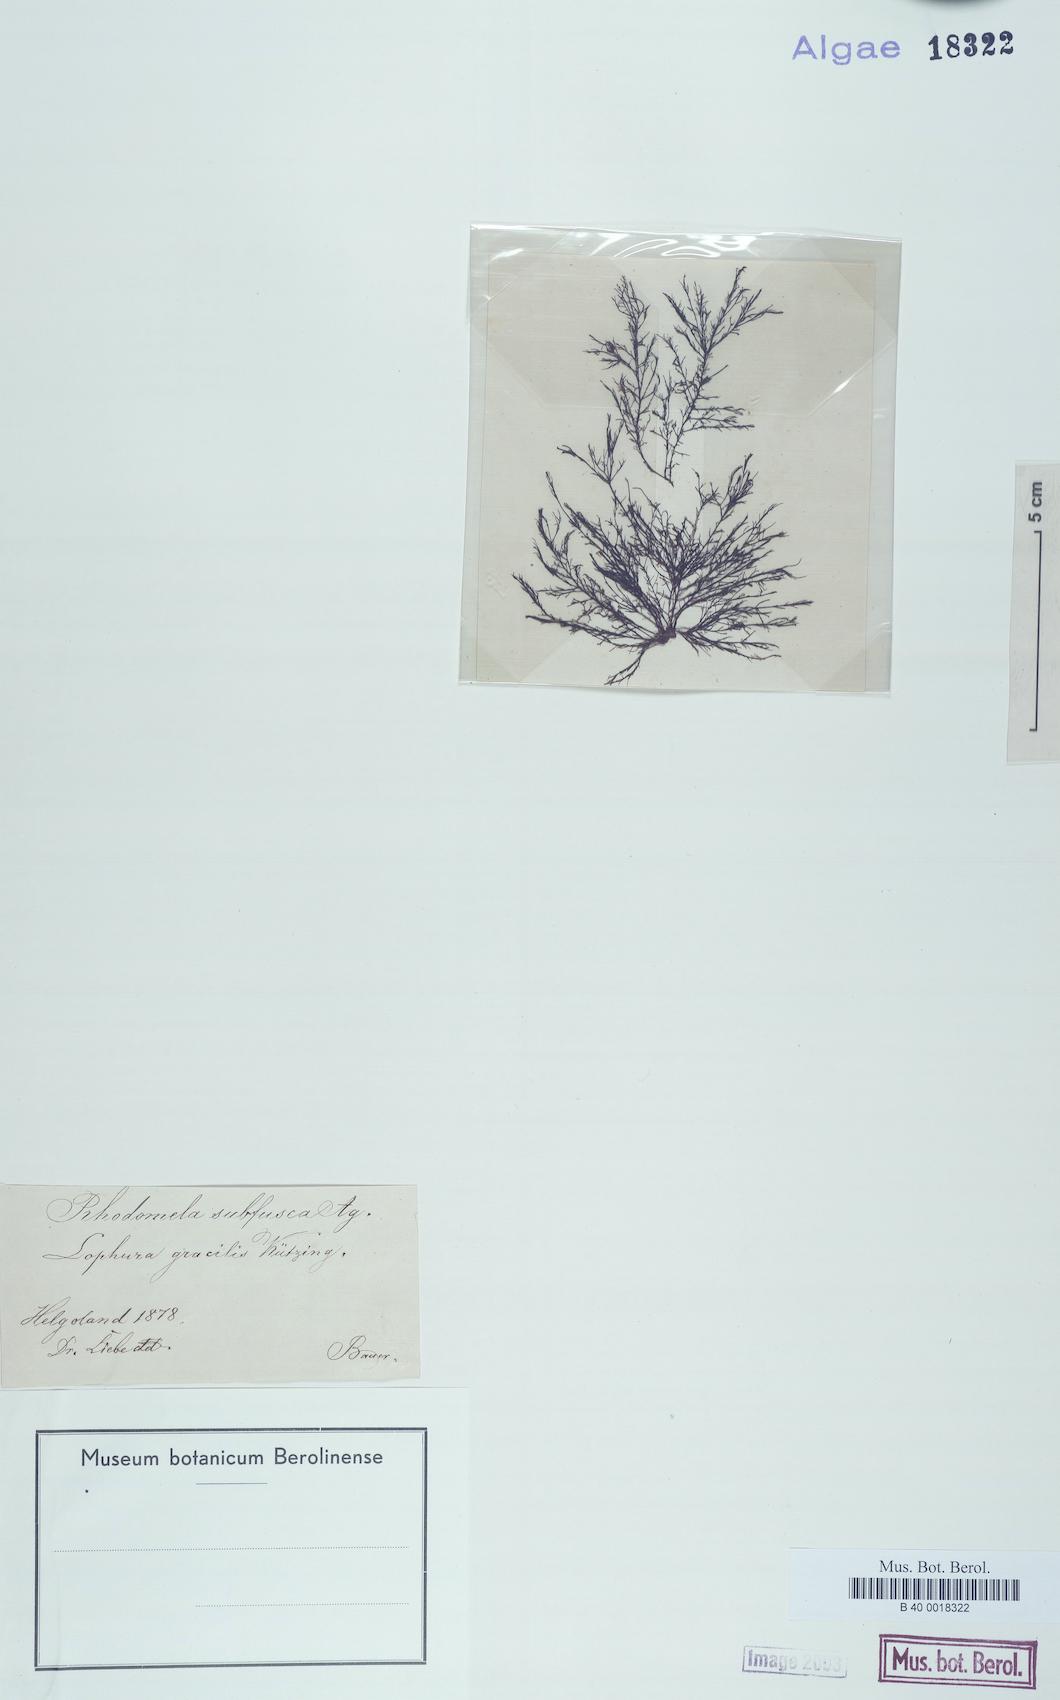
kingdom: Plantae
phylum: Rhodophyta
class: Florideophyceae
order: Ceramiales
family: Rhodomelaceae
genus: Rhodomela
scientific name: Rhodomela confervoides
